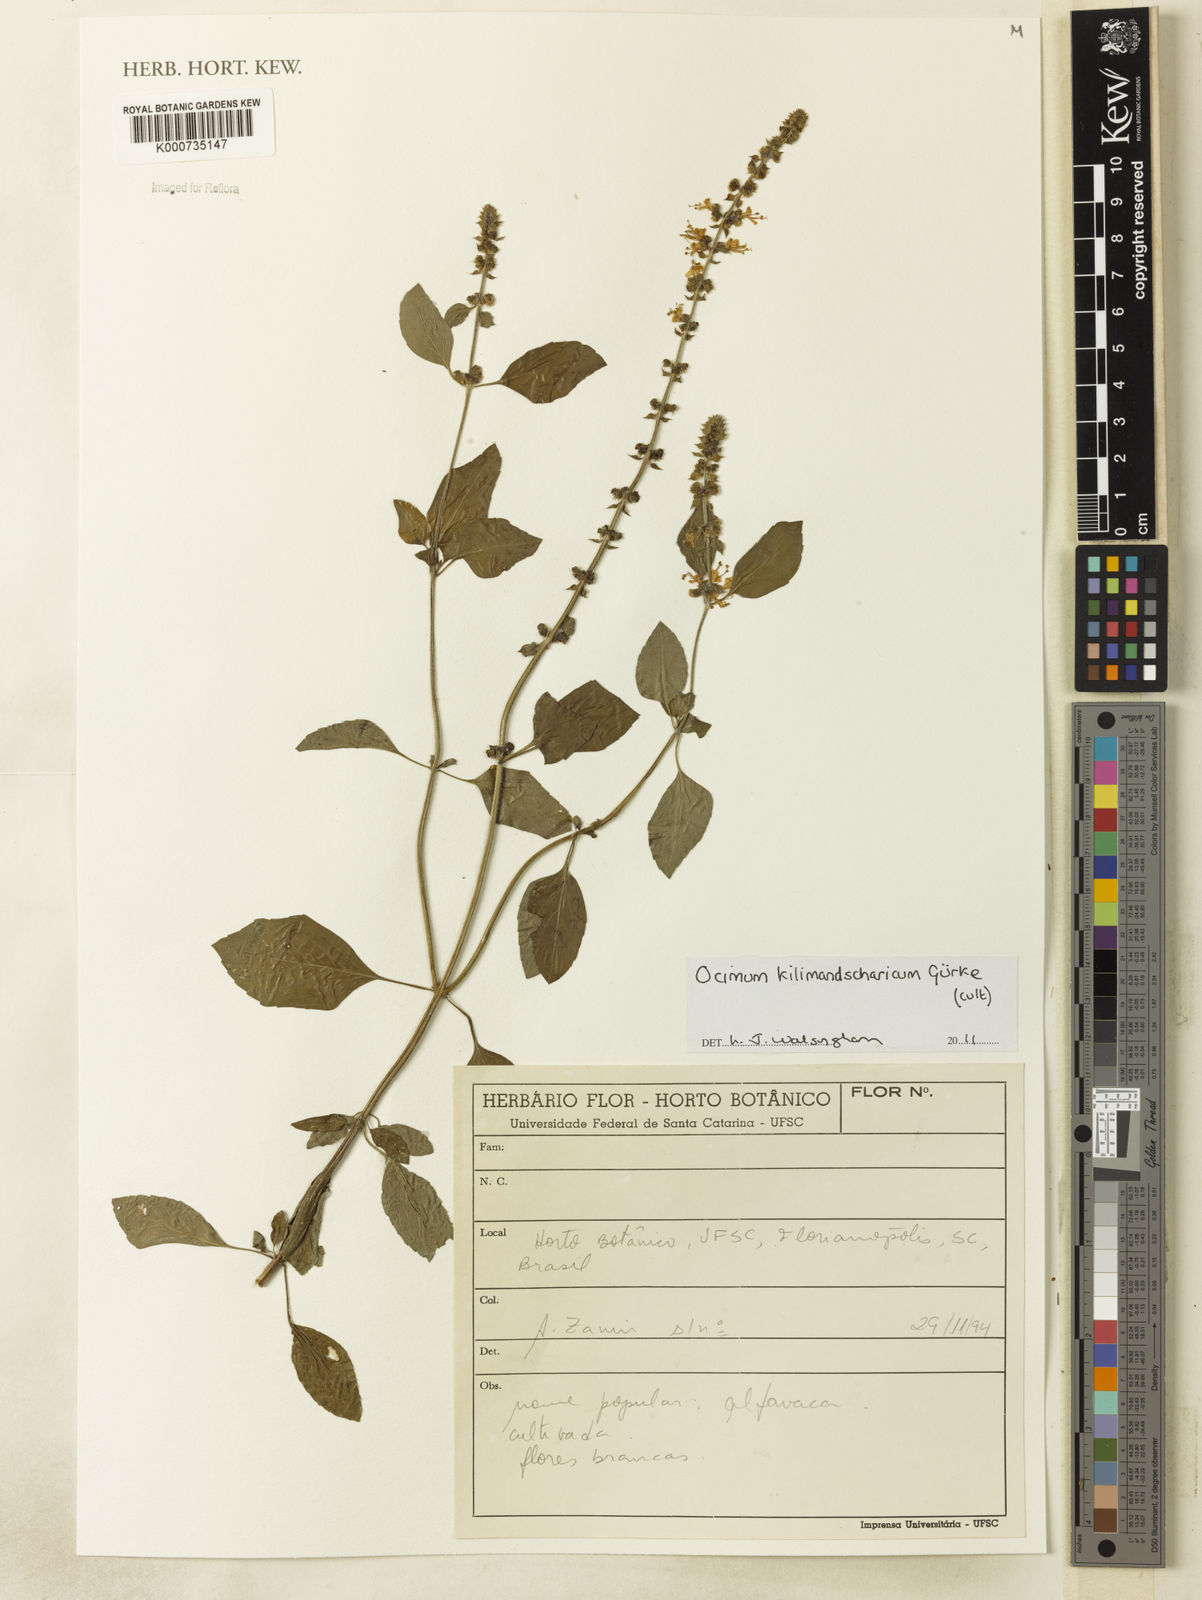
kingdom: Plantae
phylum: Tracheophyta
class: Magnoliopsida
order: Lamiales
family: Lamiaceae
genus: Ocimum
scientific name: Ocimum kilimandscharicum
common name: Camphor basil
